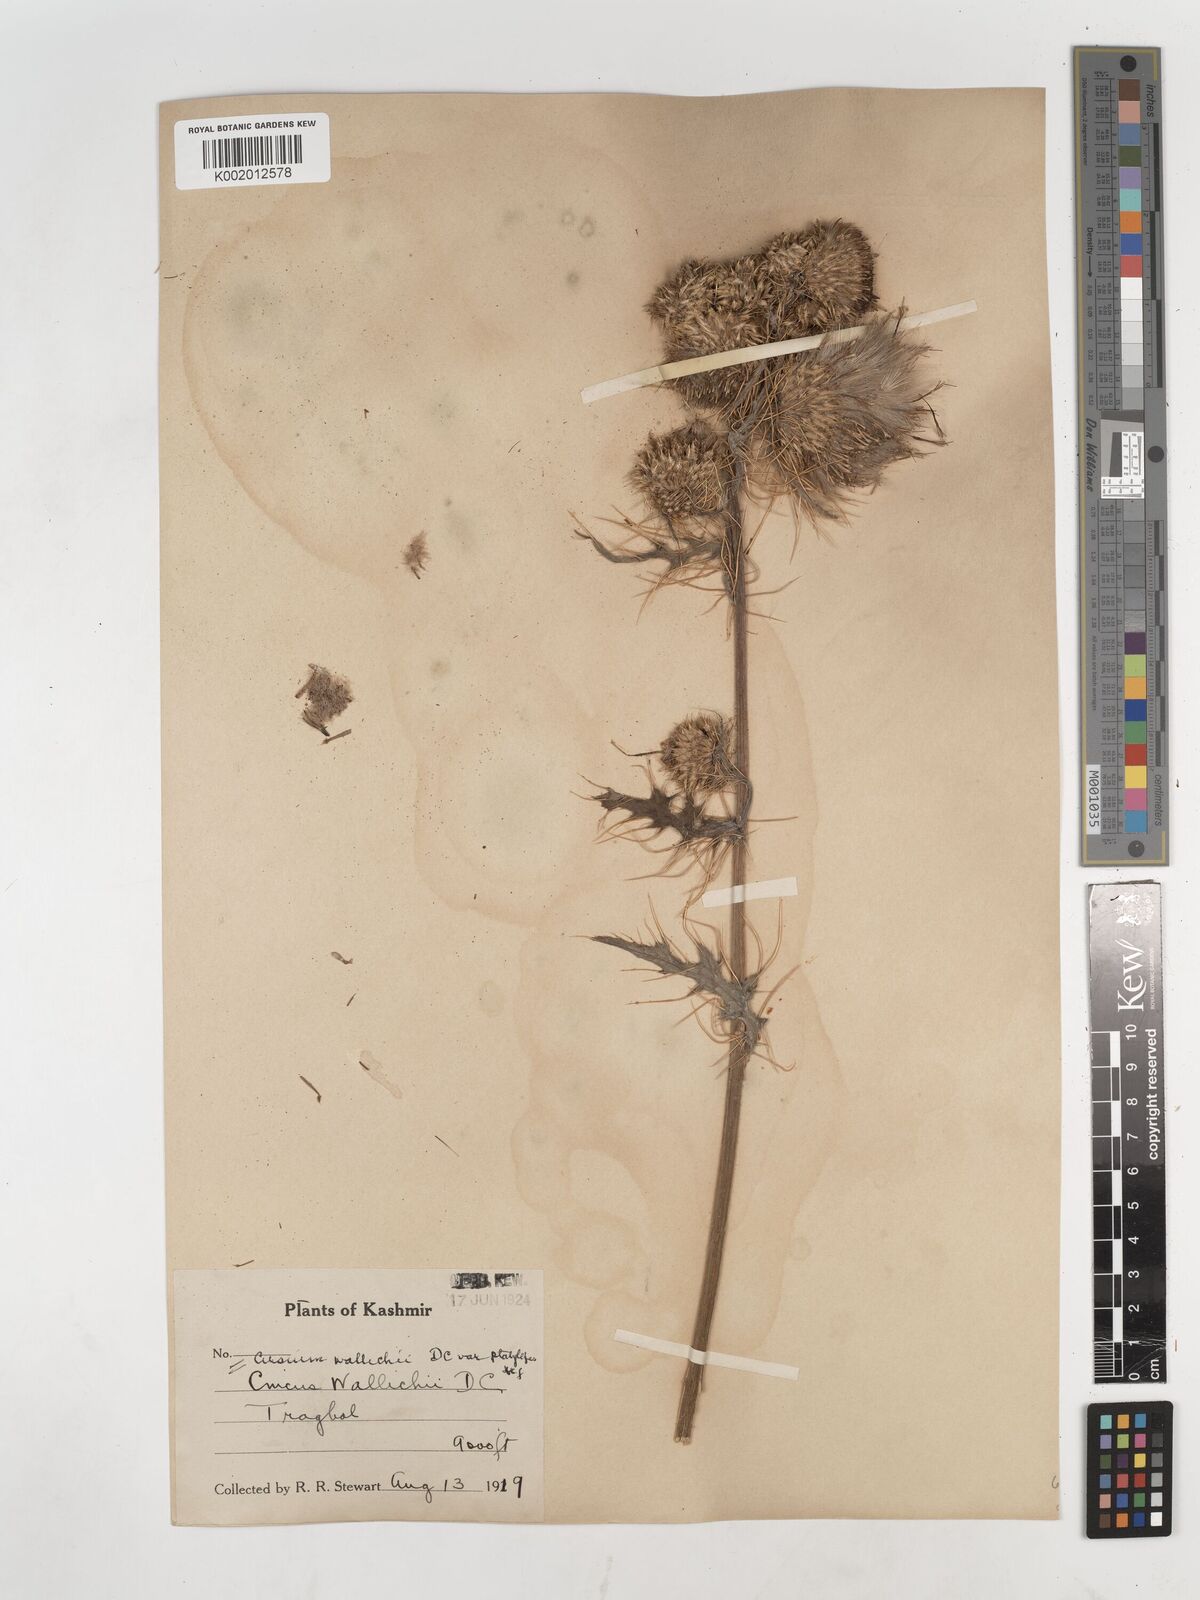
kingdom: Plantae
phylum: Tracheophyta
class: Magnoliopsida
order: Asterales
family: Asteraceae
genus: Cirsium
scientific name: Cirsium wallichii
